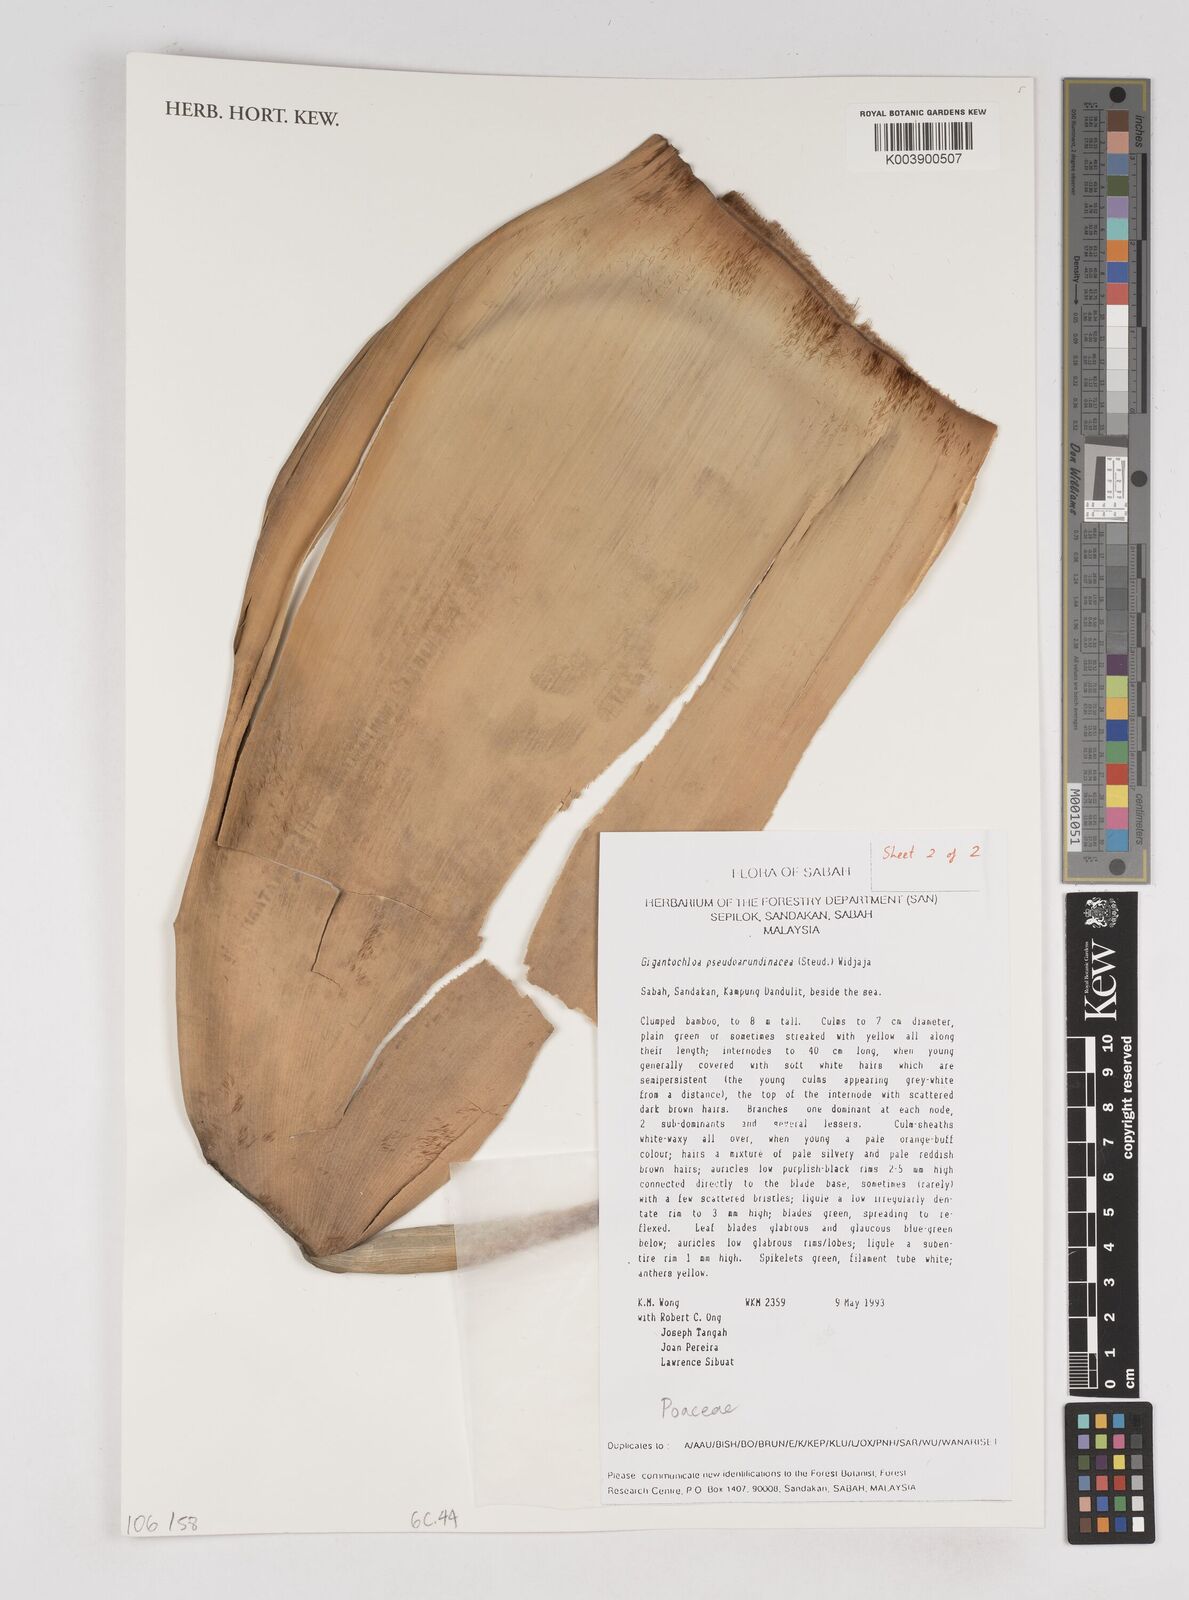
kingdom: Plantae
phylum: Tracheophyta
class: Liliopsida
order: Poales
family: Poaceae
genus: Gigantochloa
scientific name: Gigantochloa verticillata
